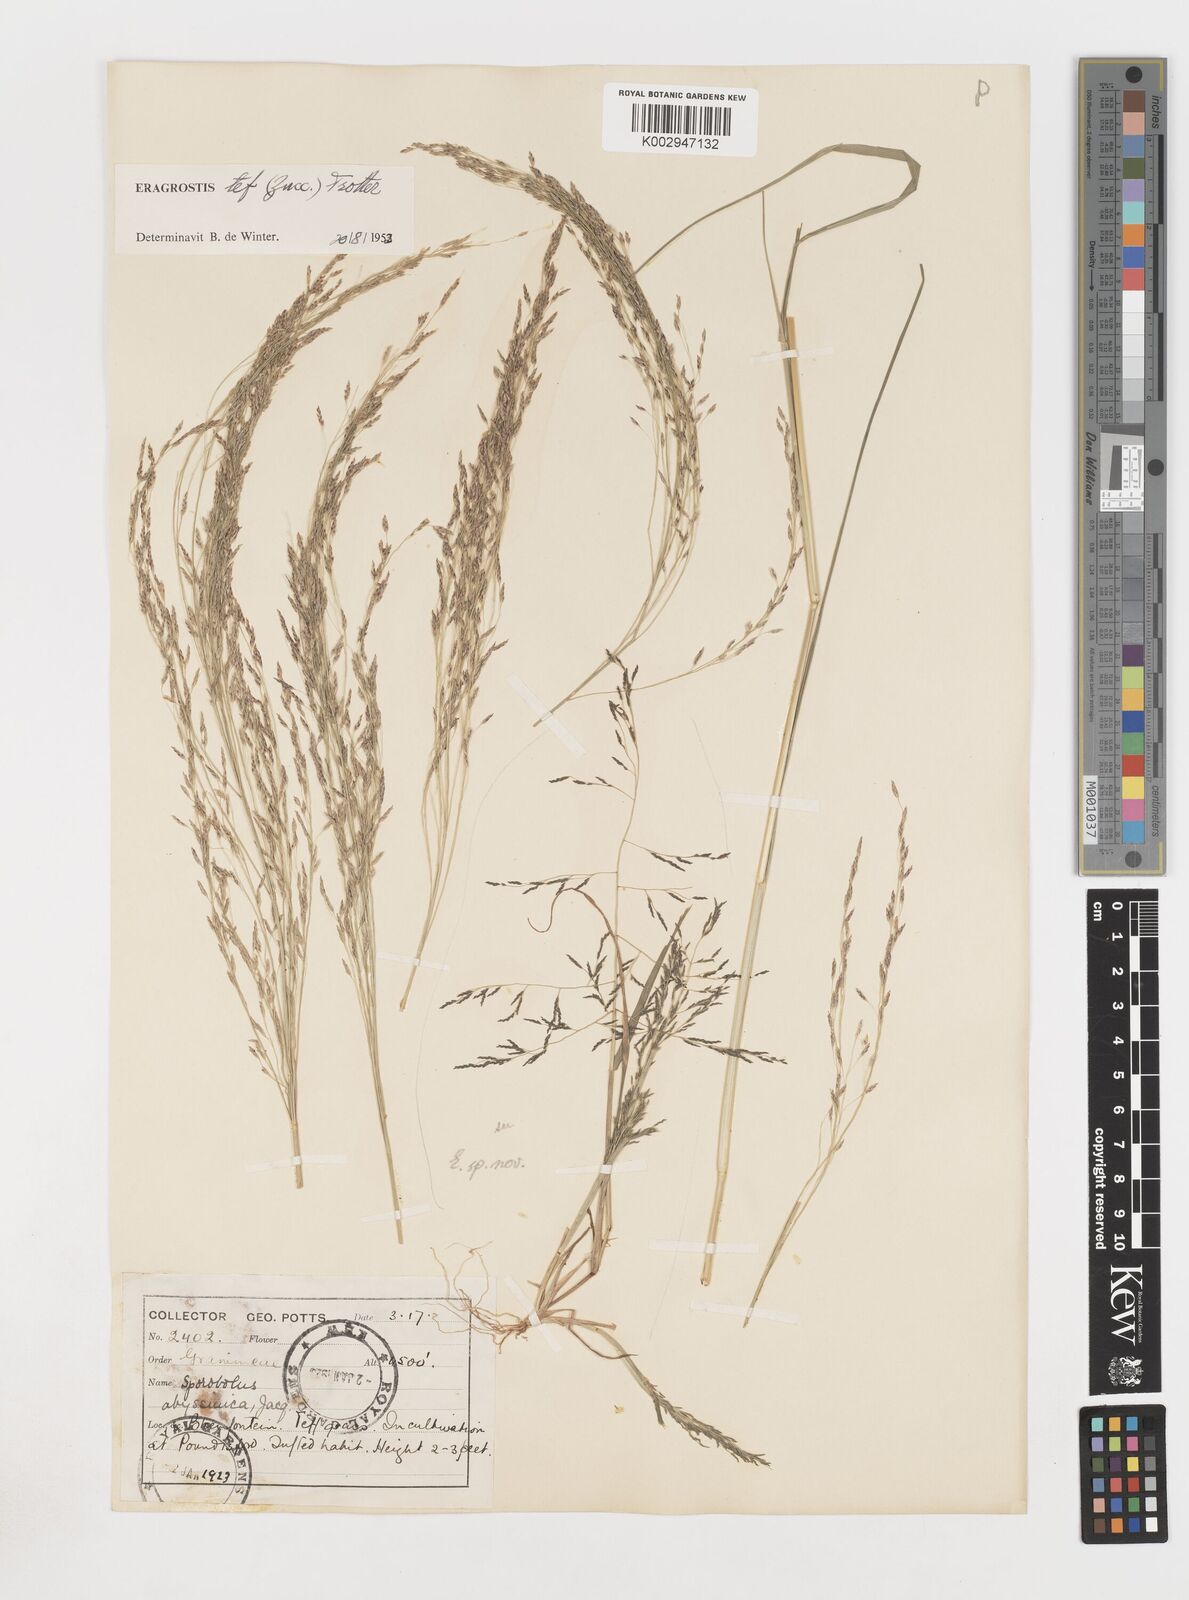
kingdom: Plantae
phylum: Tracheophyta
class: Liliopsida
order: Poales
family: Poaceae
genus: Eragrostis
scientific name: Eragrostis tef
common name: Teff
